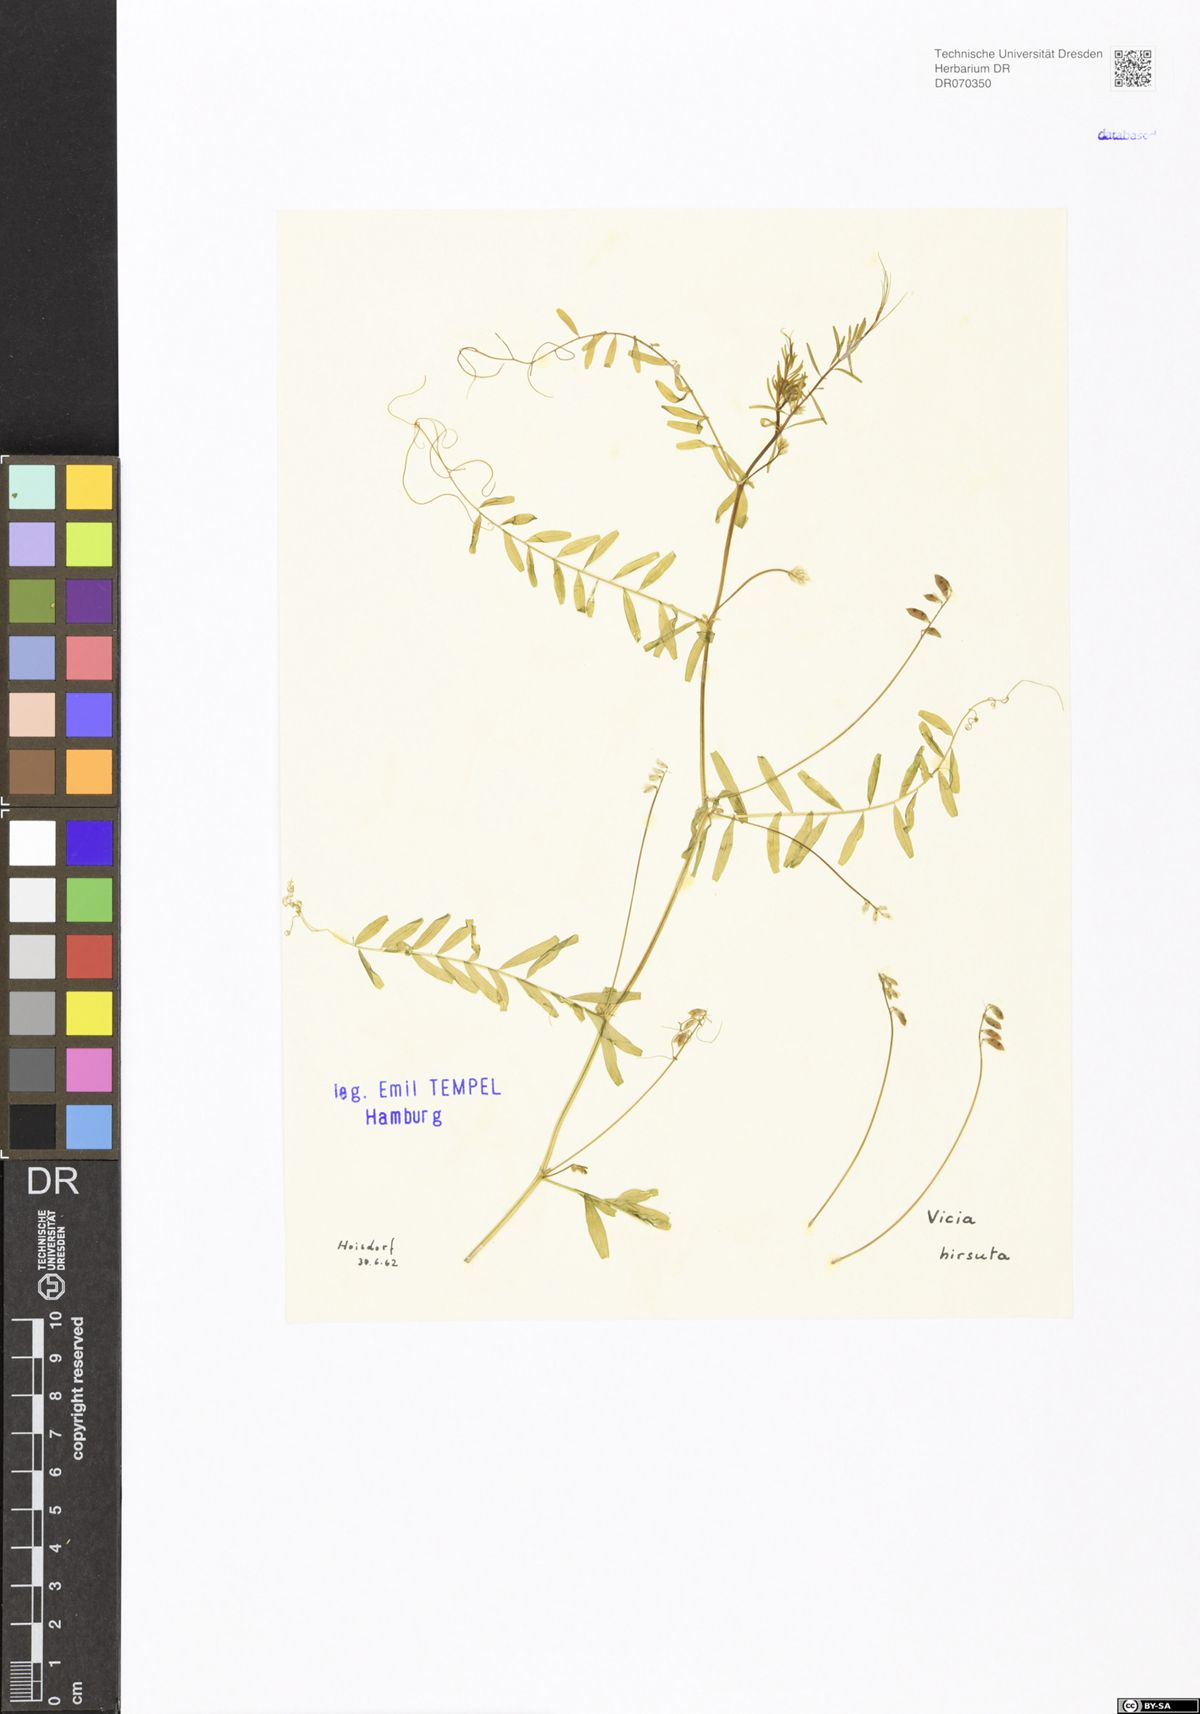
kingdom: Plantae
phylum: Tracheophyta
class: Magnoliopsida
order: Fabales
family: Fabaceae
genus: Vicia
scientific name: Vicia hirsuta
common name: Tiny vetch
